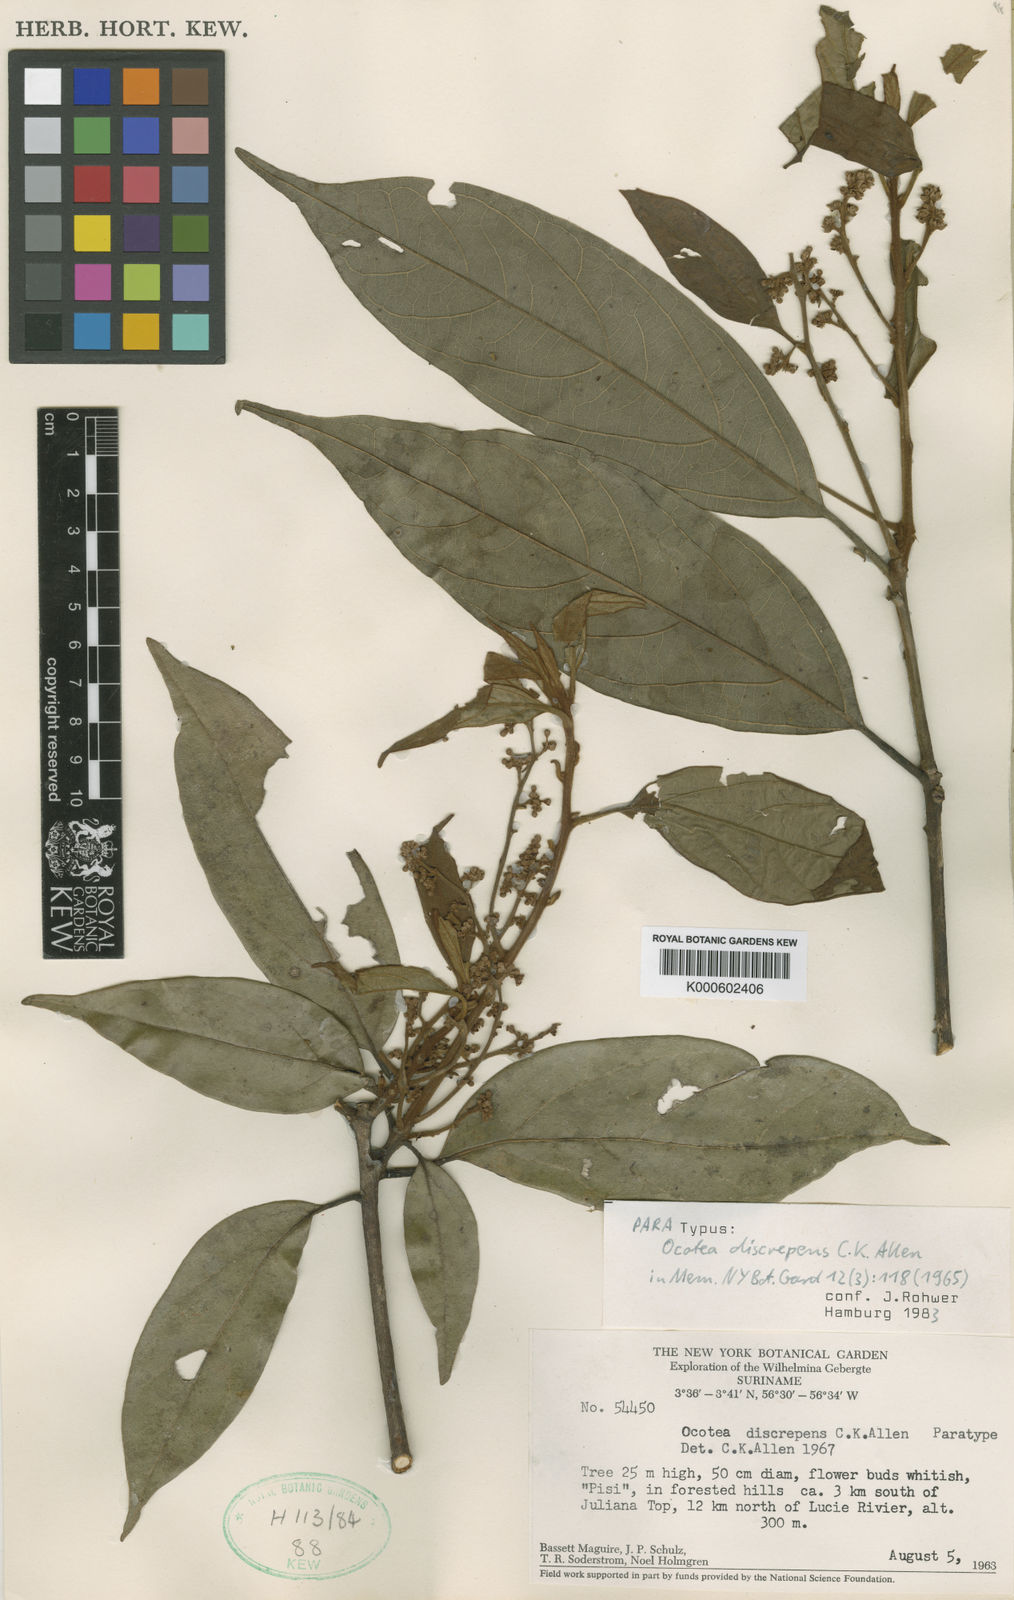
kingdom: Plantae
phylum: Tracheophyta
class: Magnoliopsida
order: Laurales
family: Lauraceae
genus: Ocotea
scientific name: Ocotea discrepens
